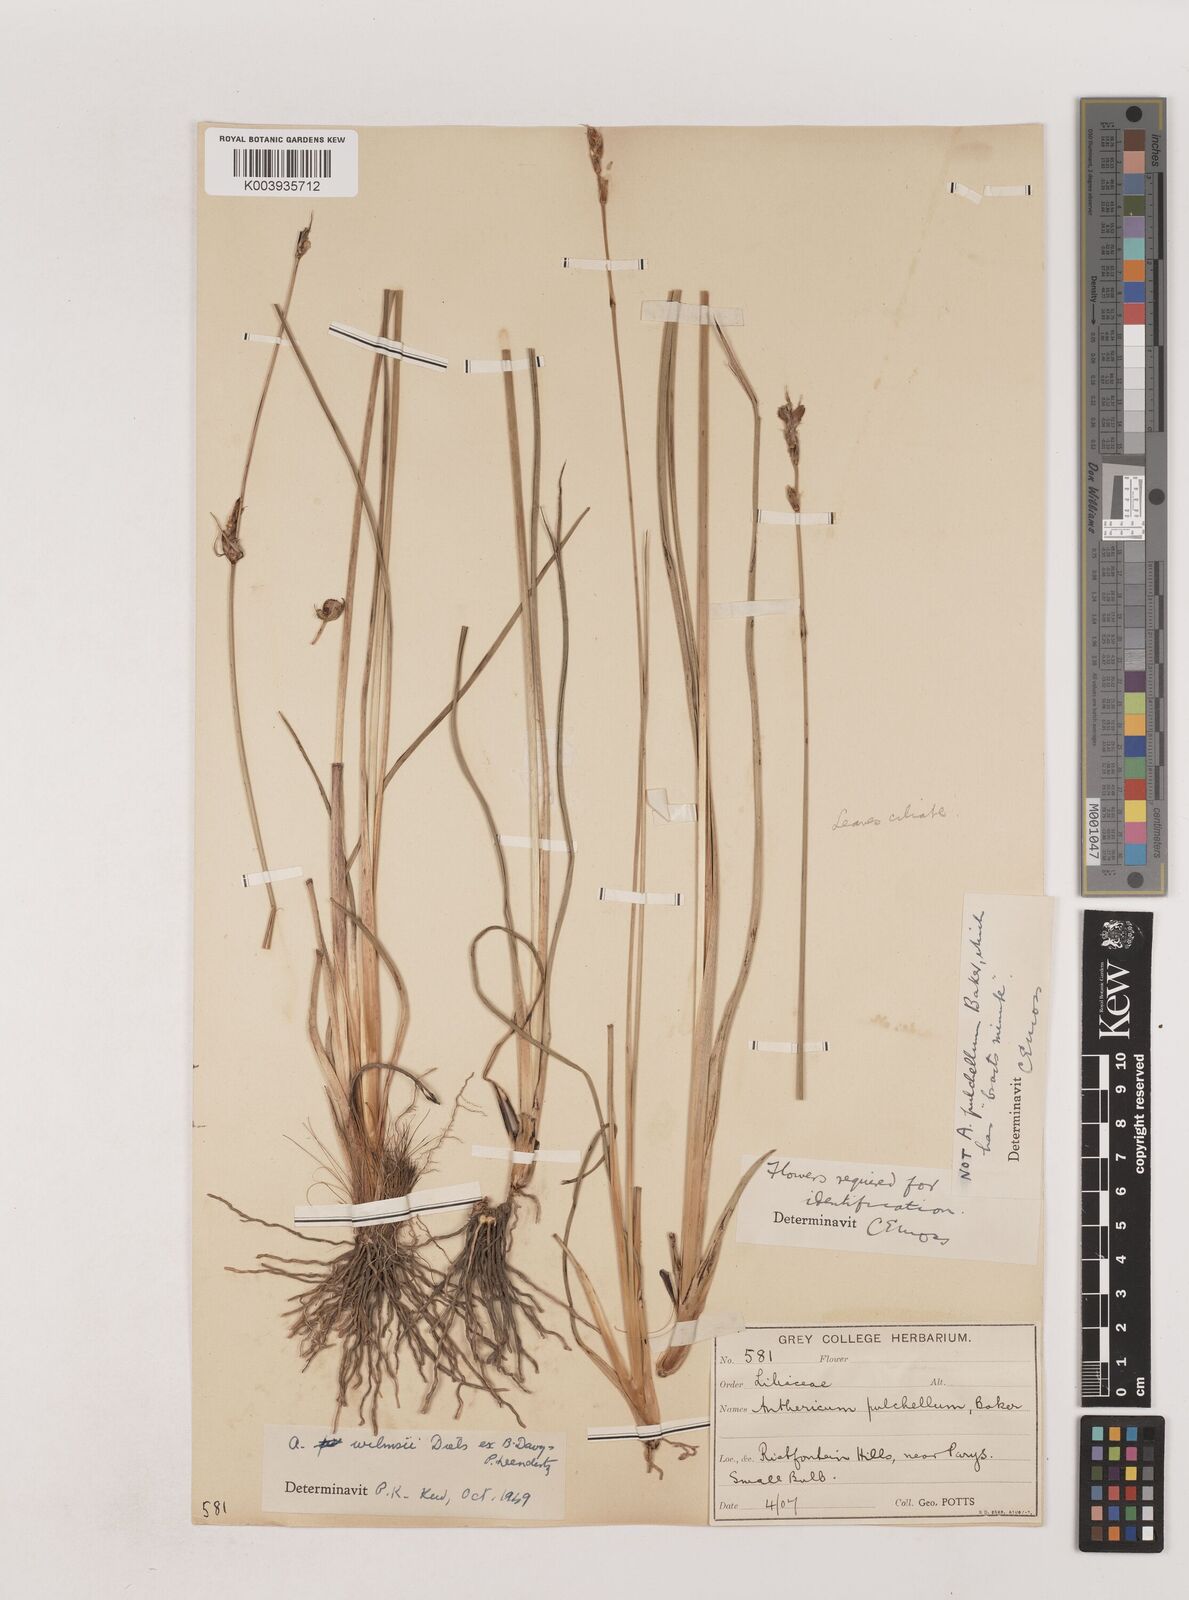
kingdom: Plantae
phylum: Tracheophyta
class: Liliopsida
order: Asparagales
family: Asparagaceae
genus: Chlorophytum
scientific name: Chlorophytum fasciculatum
